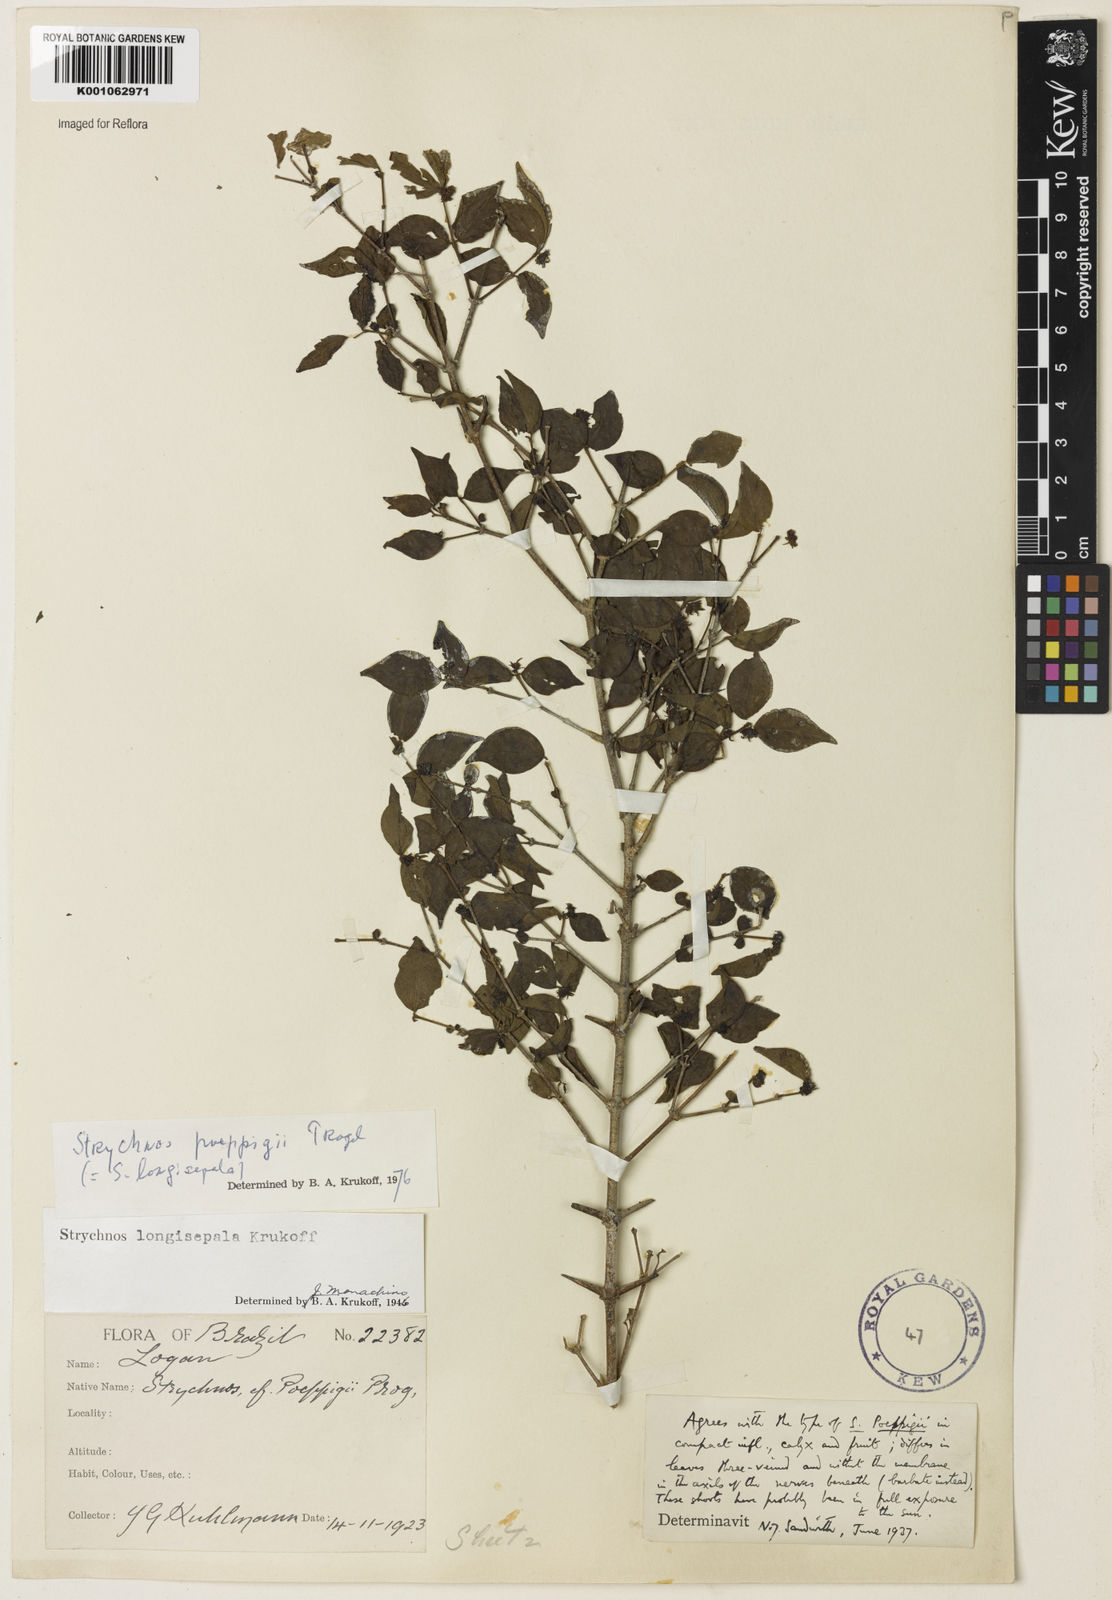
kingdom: Plantae
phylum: Tracheophyta
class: Magnoliopsida
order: Gentianales
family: Loganiaceae
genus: Strychnos
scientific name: Strychnos poeppigii
